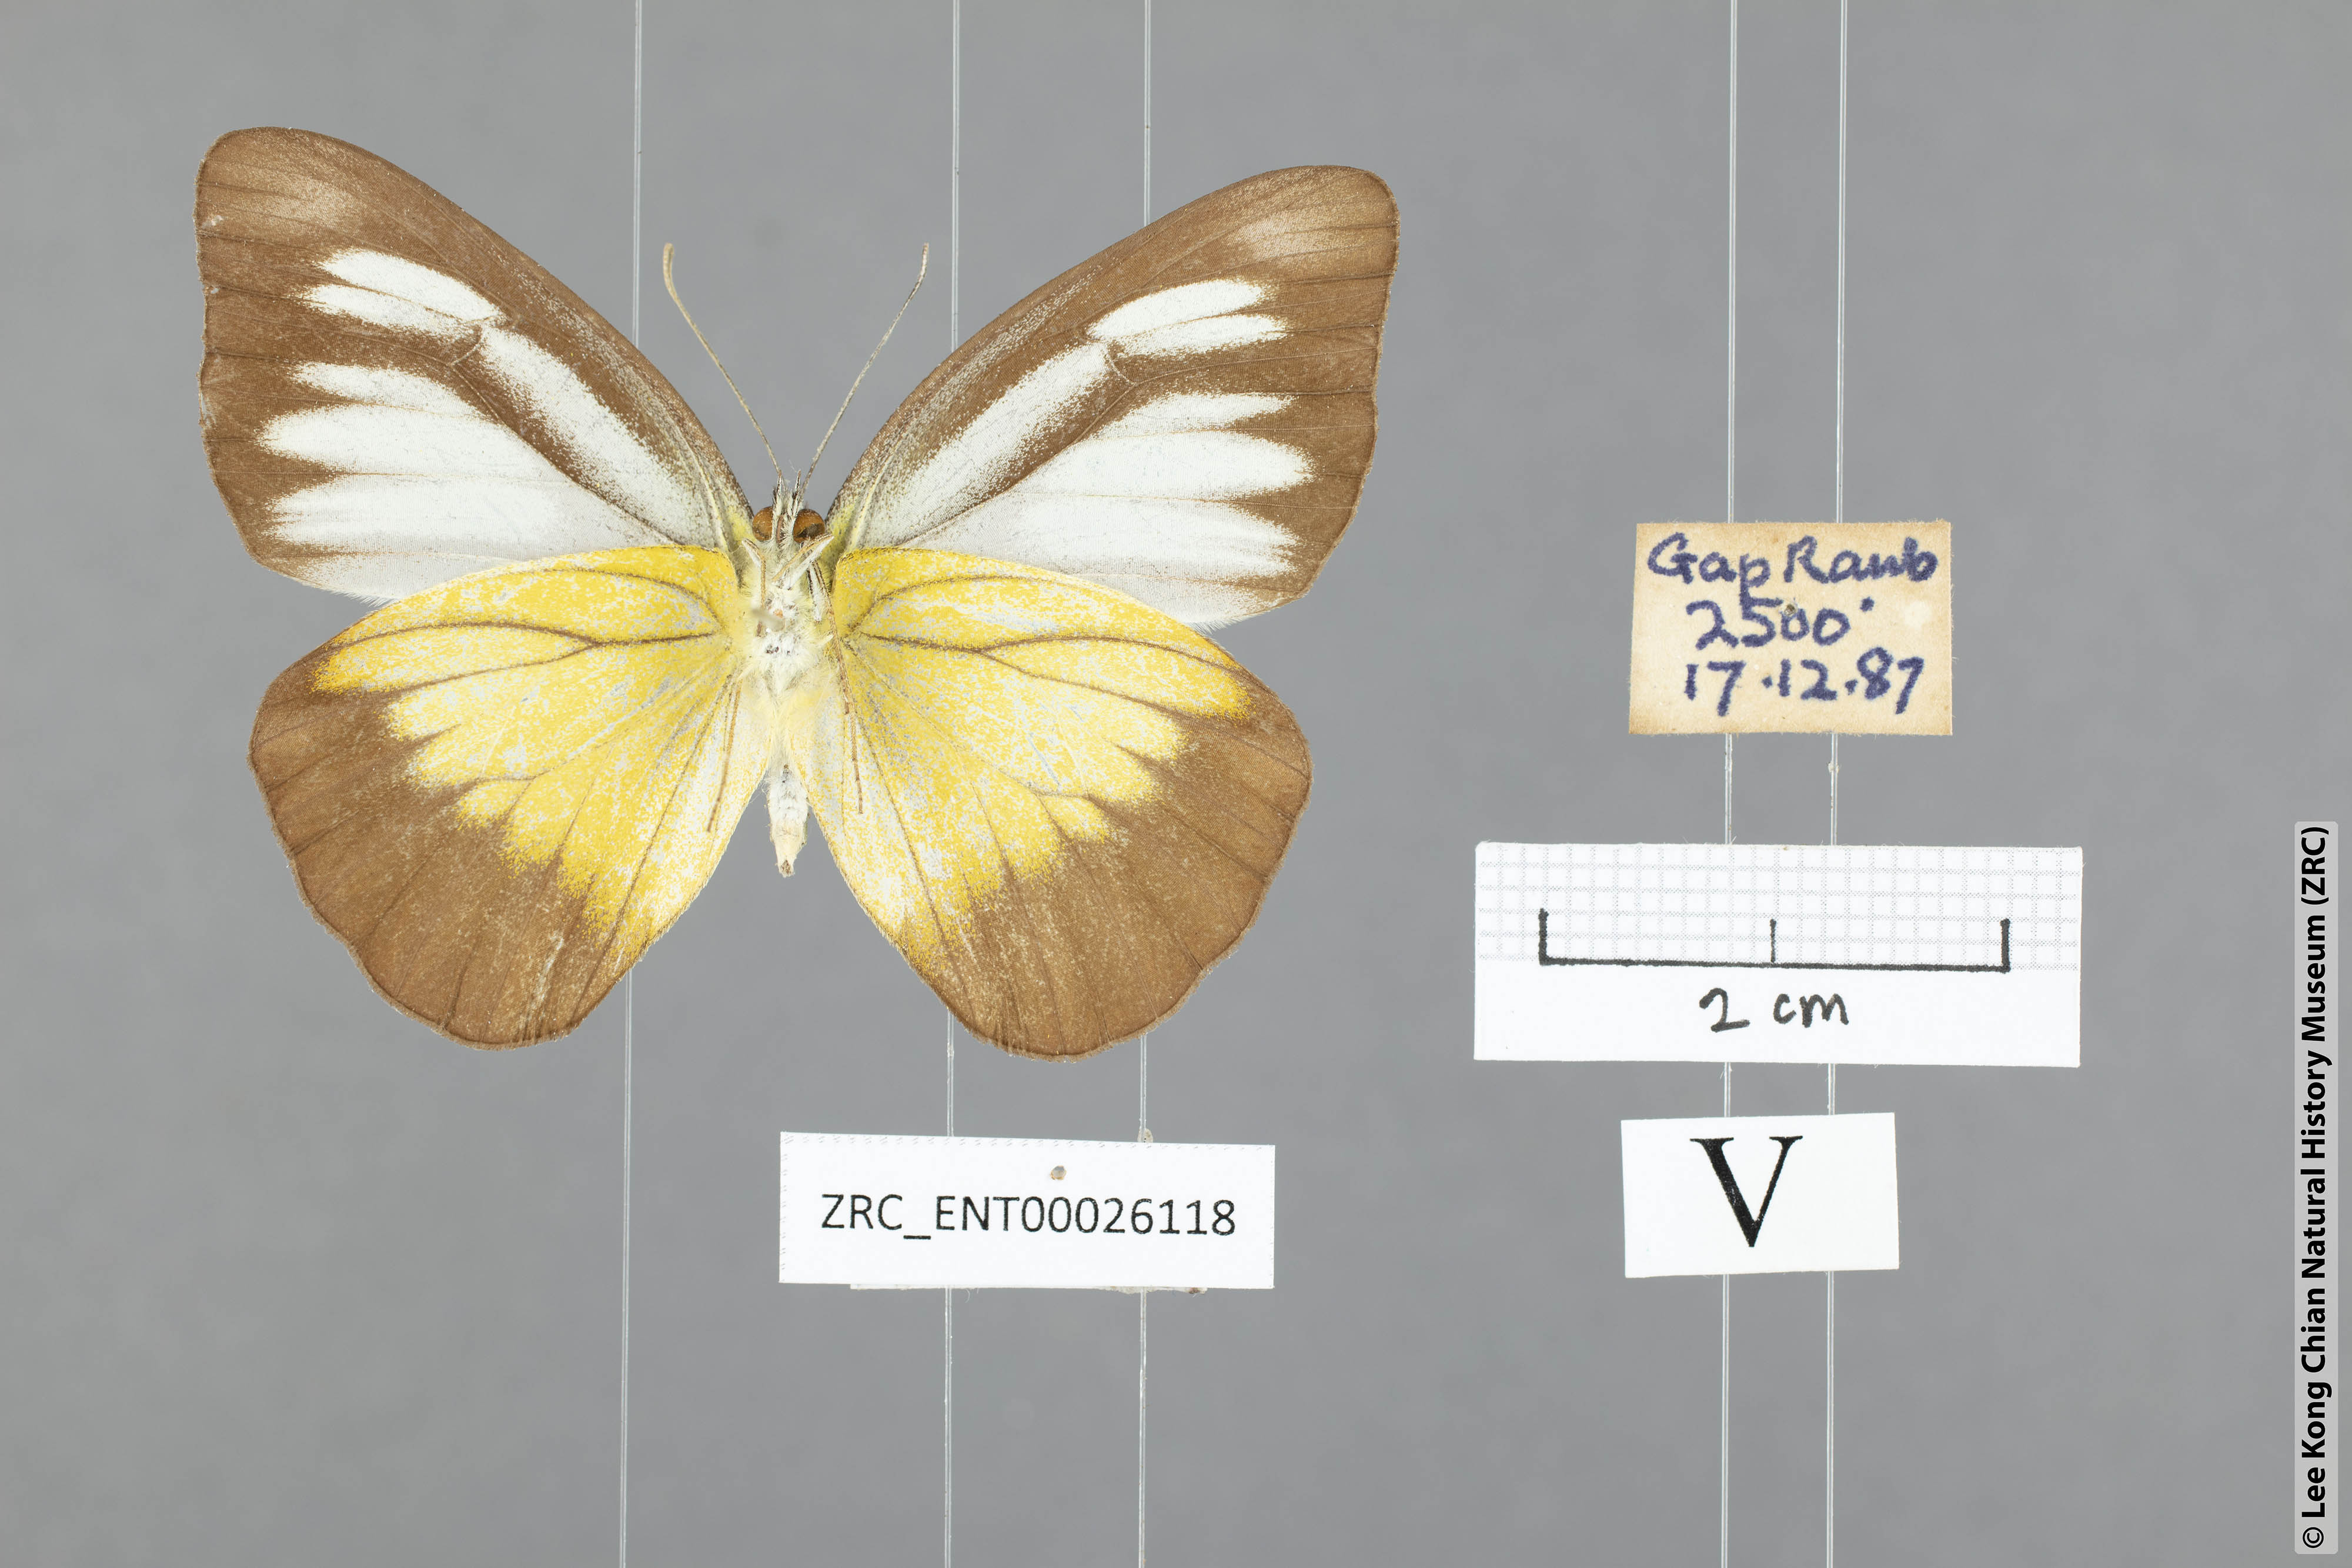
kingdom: Animalia
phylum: Arthropoda
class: Insecta
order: Lepidoptera
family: Pieridae
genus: Appias
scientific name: Appias lyncida
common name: Chocolate albatross
